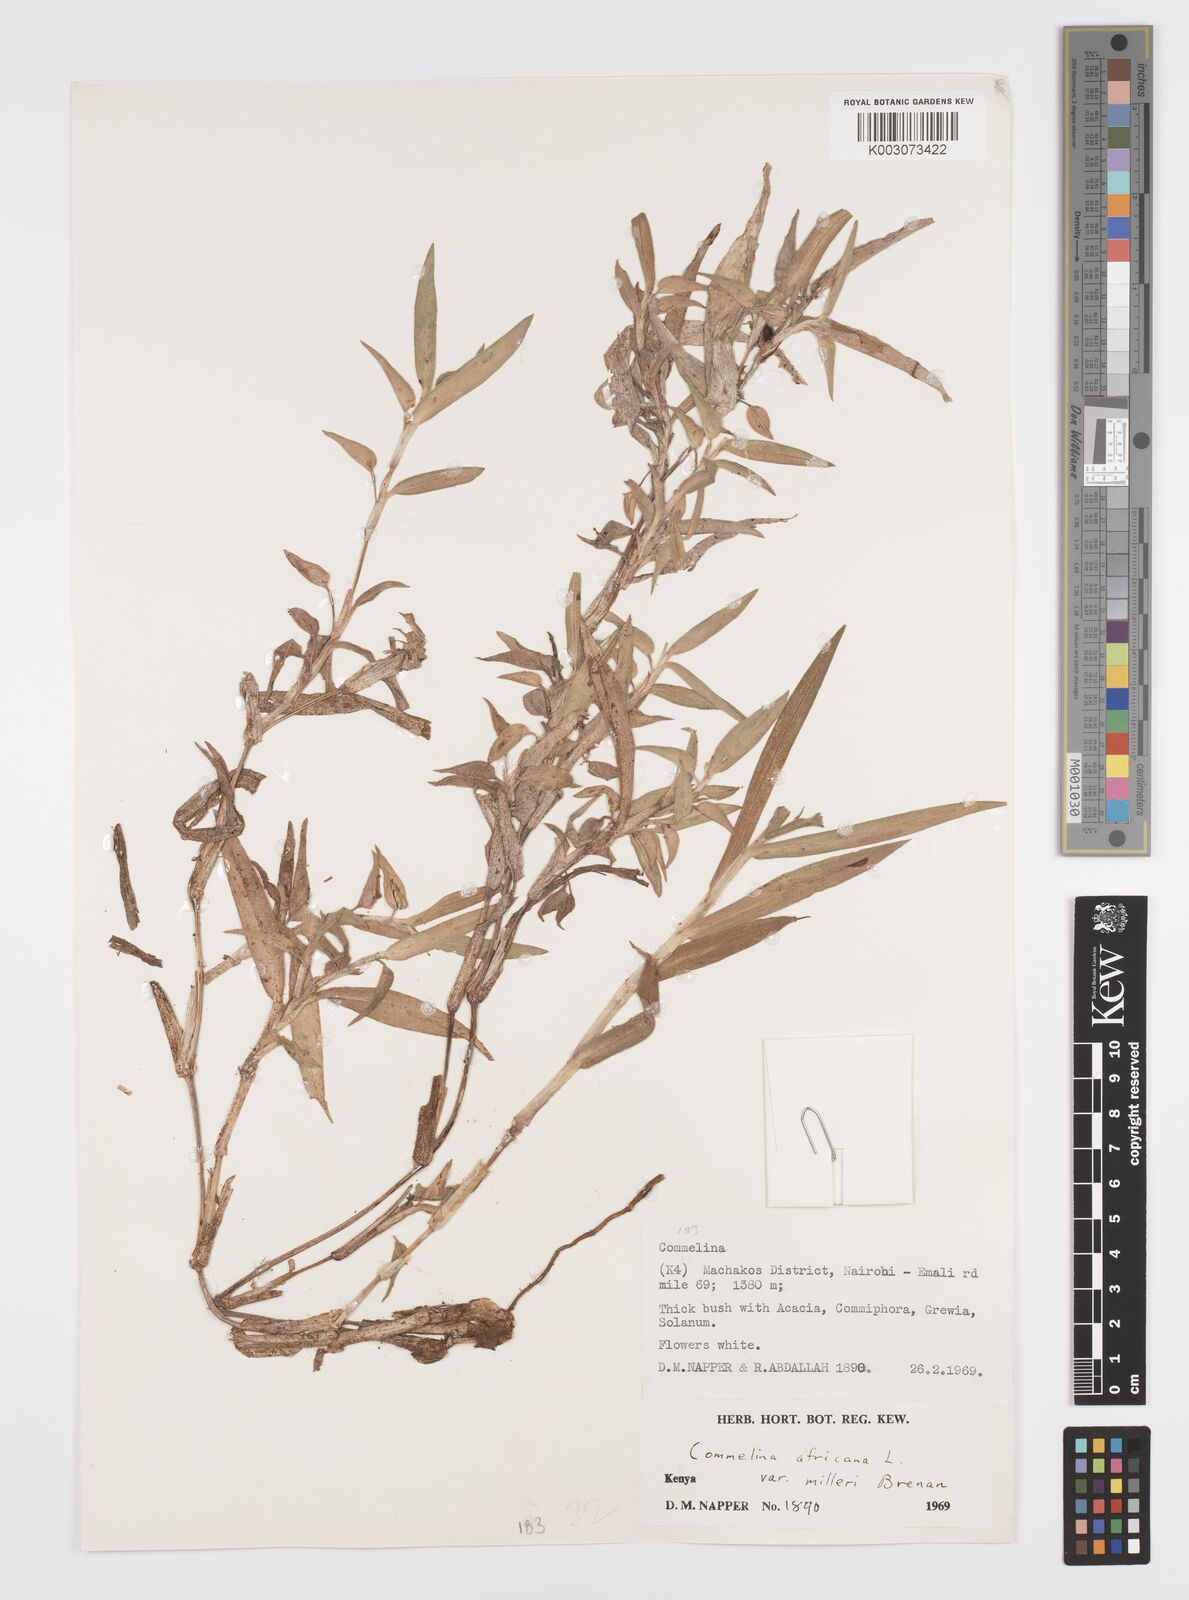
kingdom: Plantae
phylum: Tracheophyta
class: Liliopsida
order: Commelinales
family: Commelinaceae
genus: Commelina
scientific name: Commelina africana
